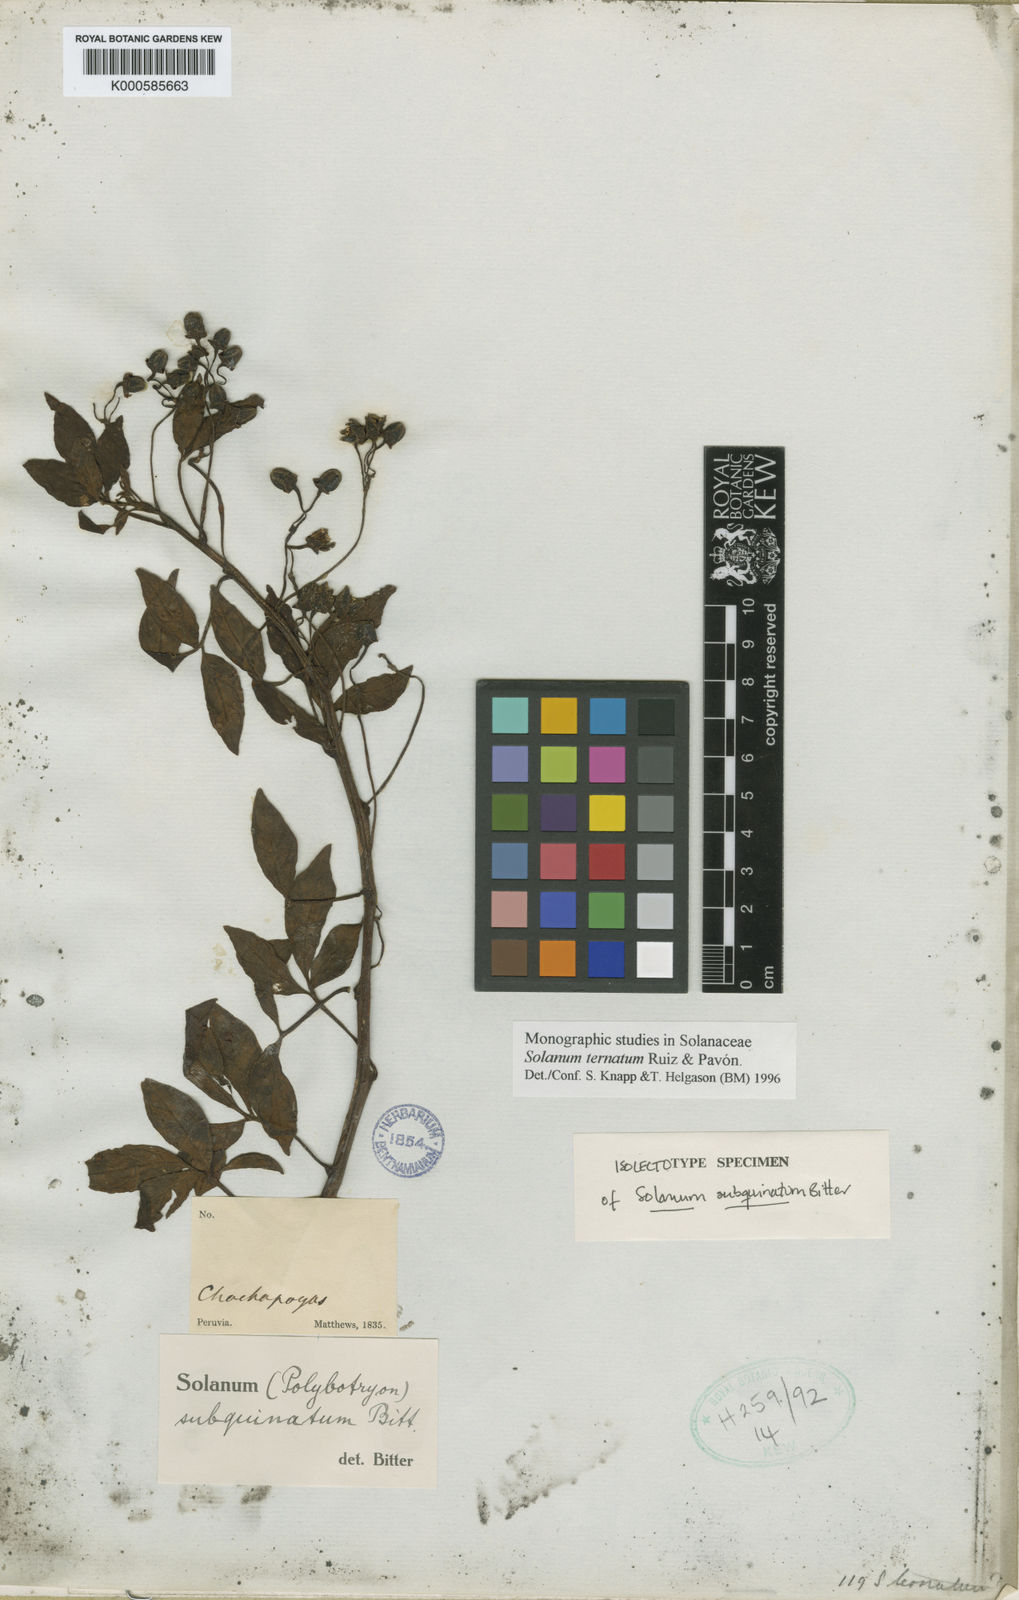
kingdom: Plantae
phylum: Tracheophyta
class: Magnoliopsida
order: Solanales
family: Solanaceae
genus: Solanum
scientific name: Solanum ternatum
